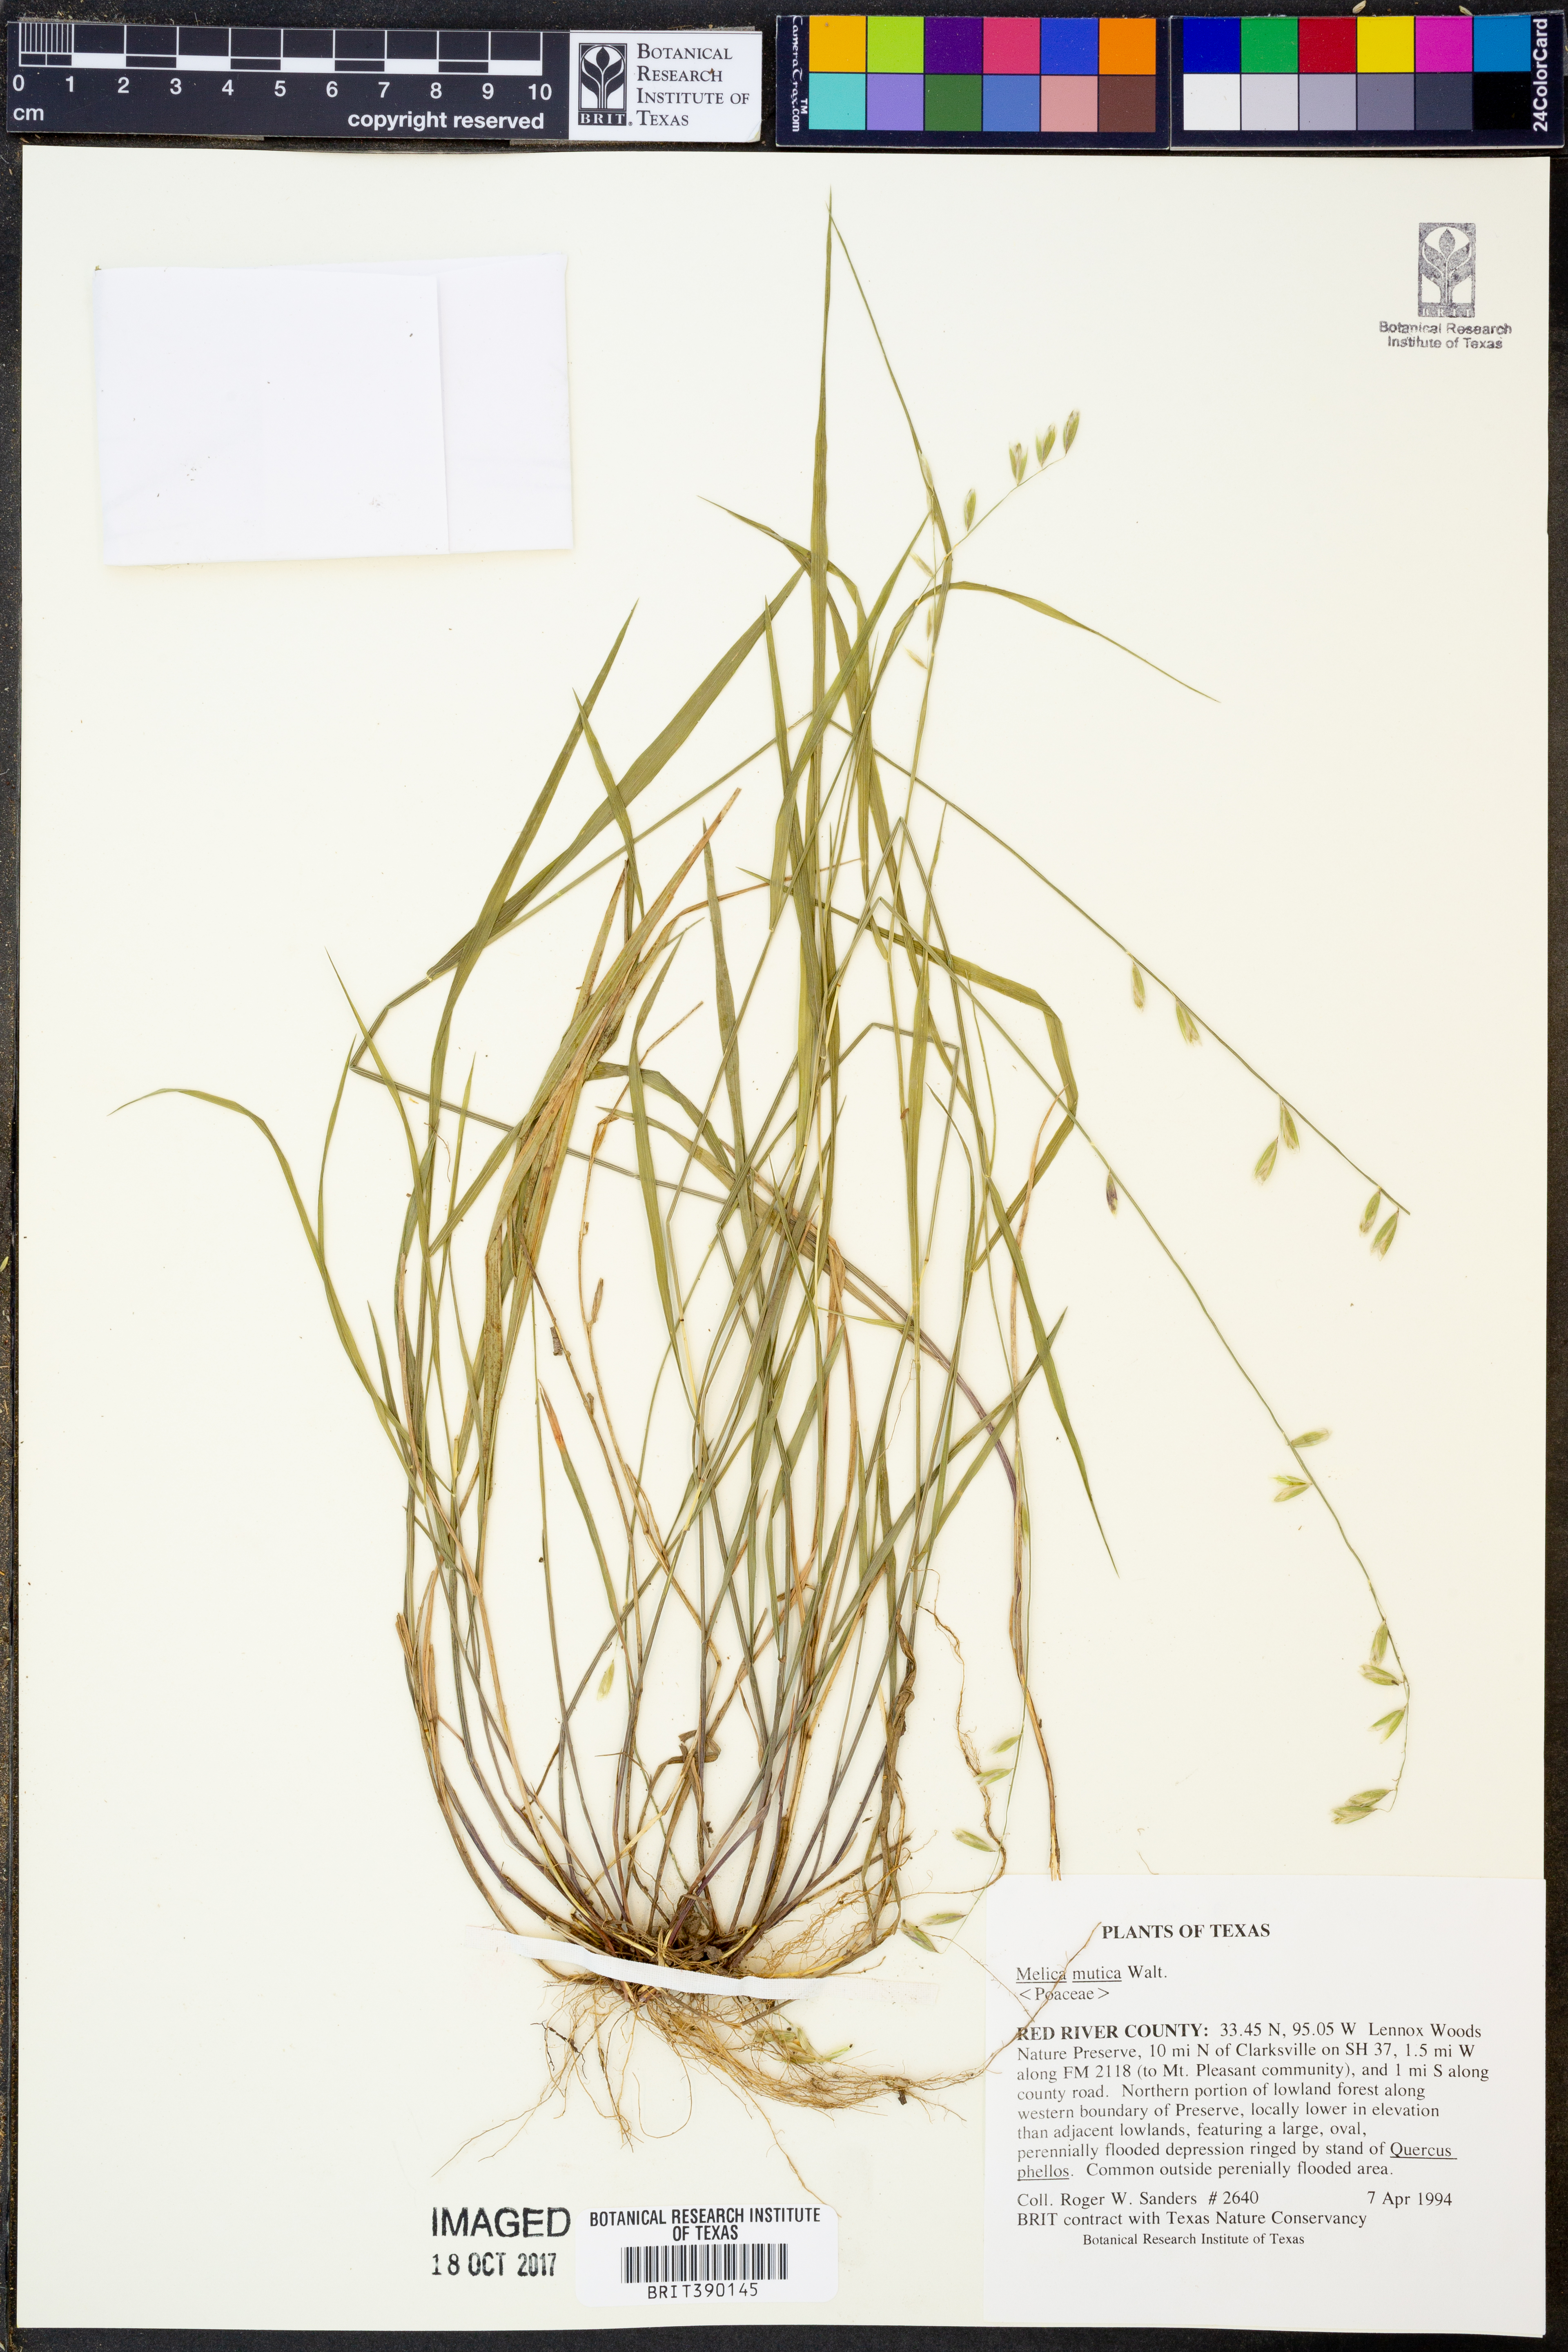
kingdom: Plantae
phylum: Tracheophyta
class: Liliopsida
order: Poales
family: Poaceae
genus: Melica
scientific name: Melica mutica
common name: Two-flower melic
